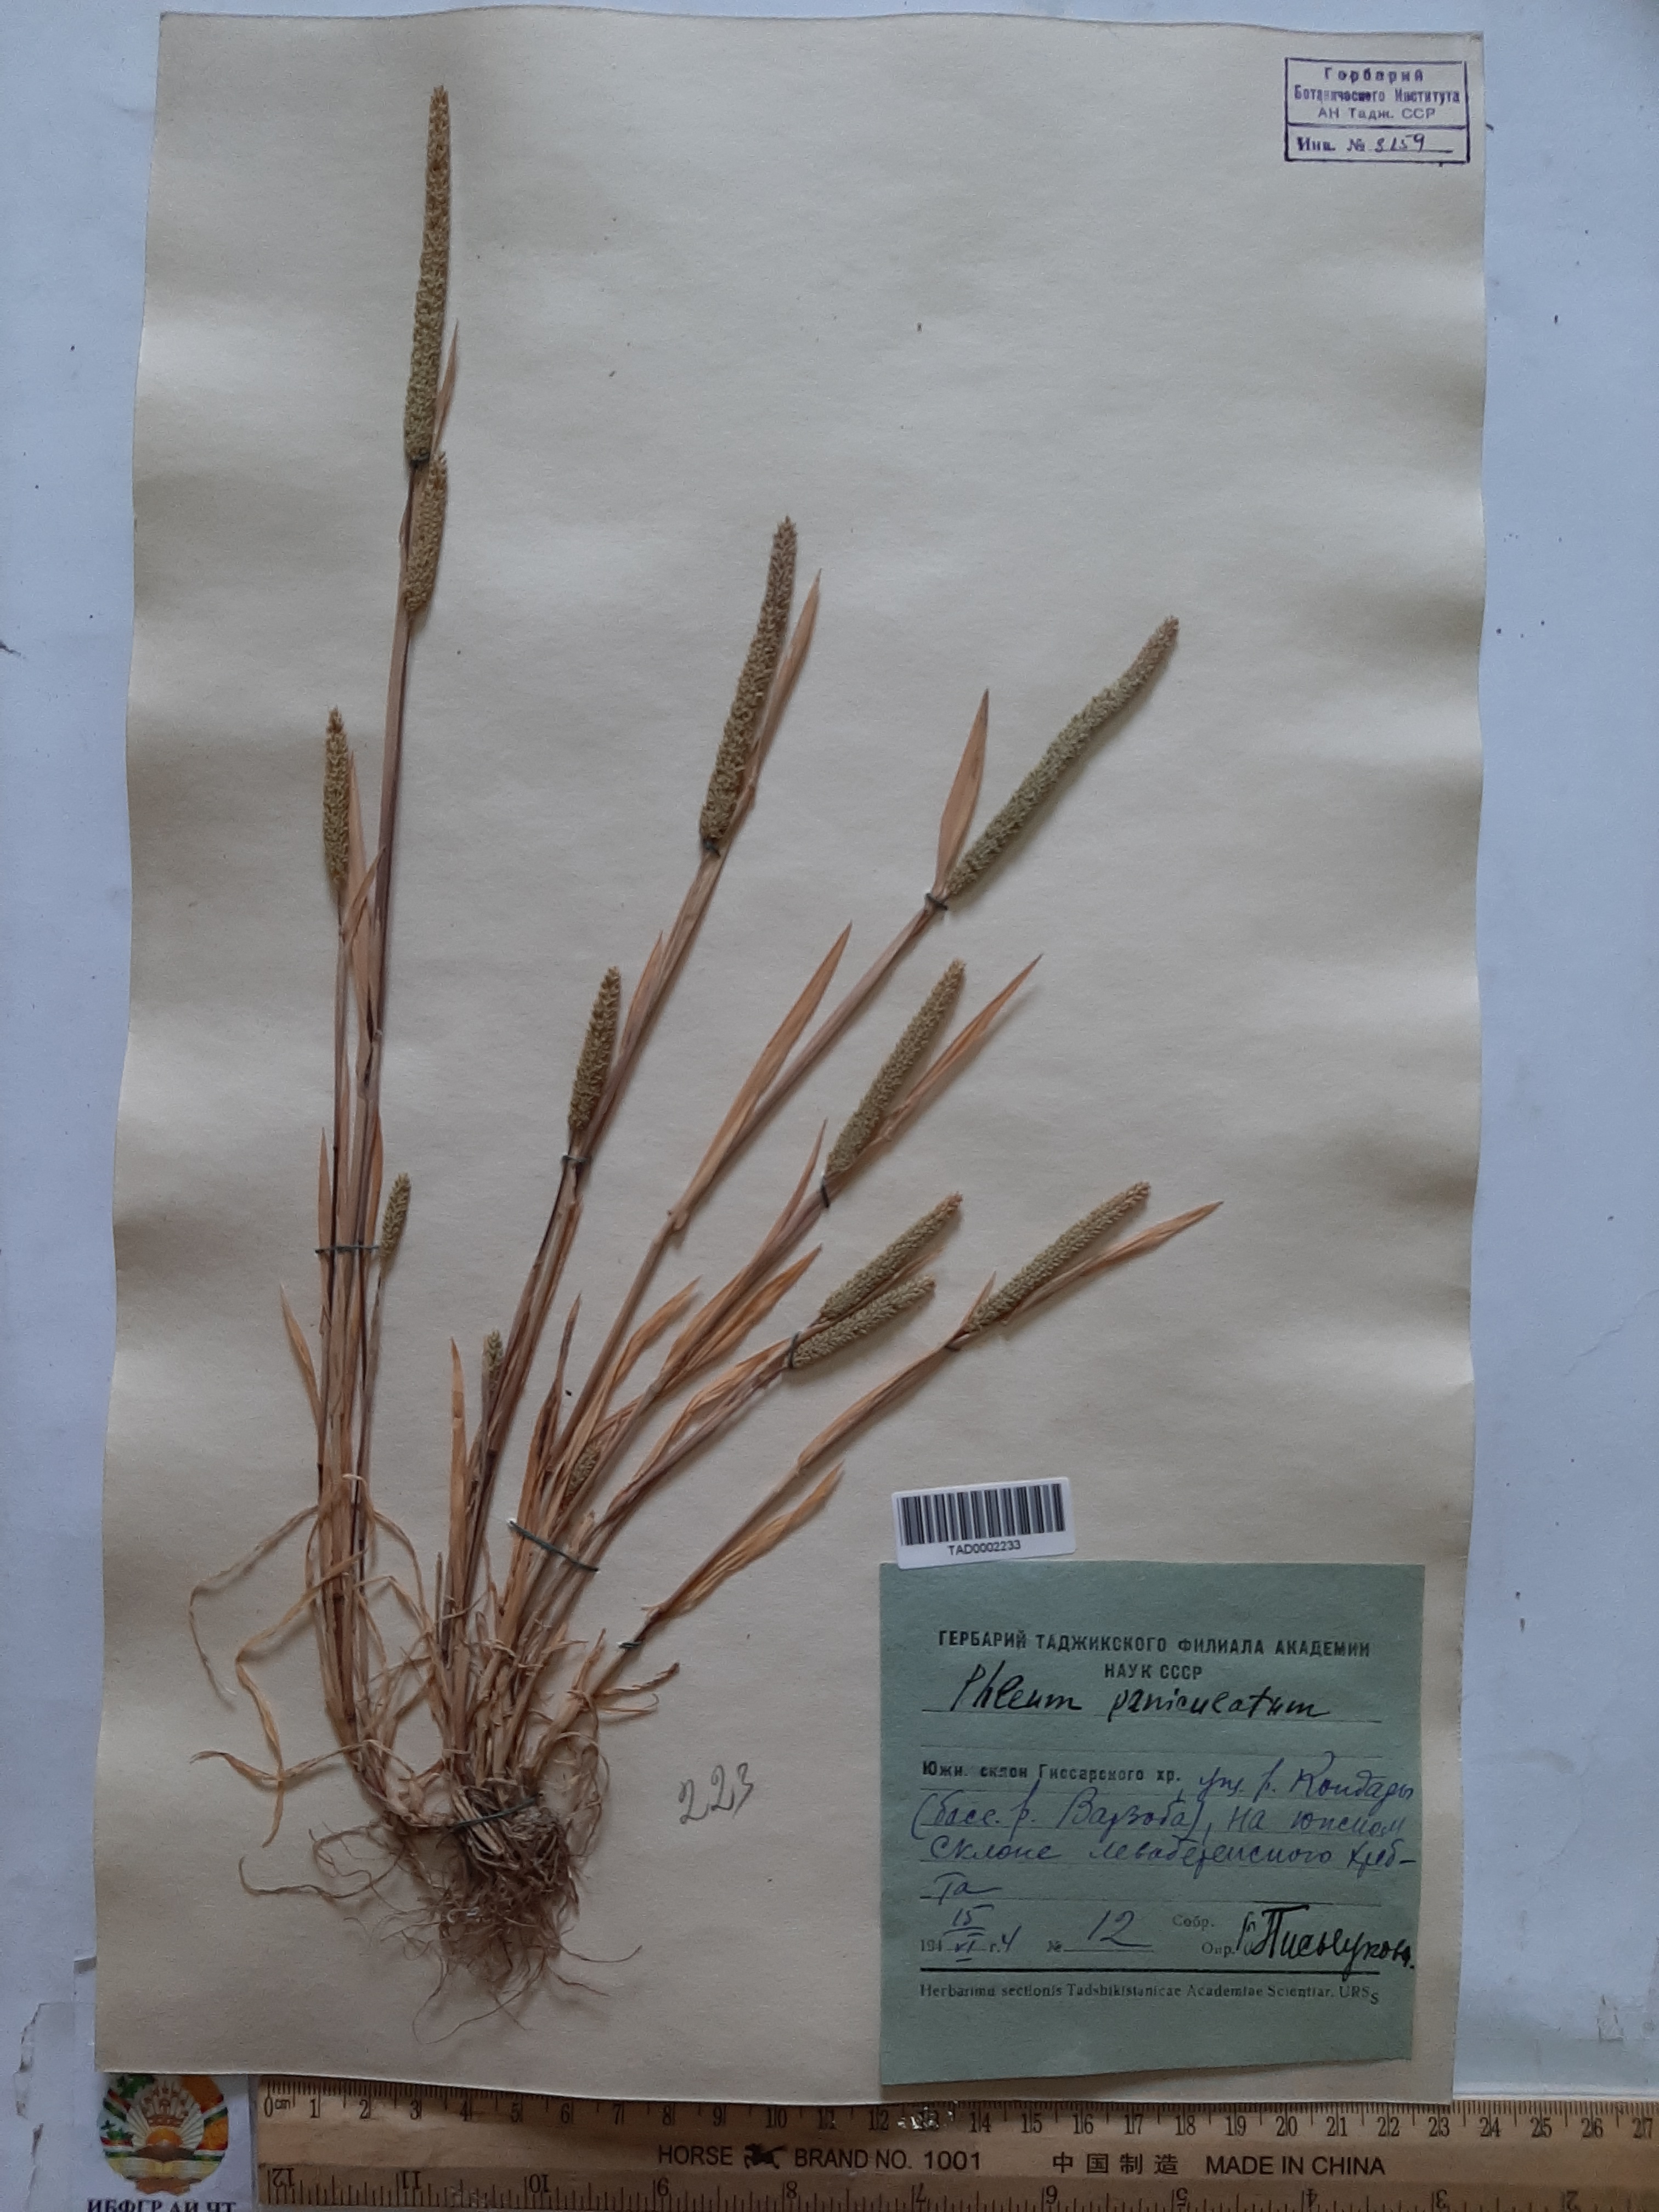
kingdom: Plantae
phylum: Tracheophyta
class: Liliopsida
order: Poales
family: Poaceae
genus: Phleum
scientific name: Phleum paniculatum
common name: British timothy
